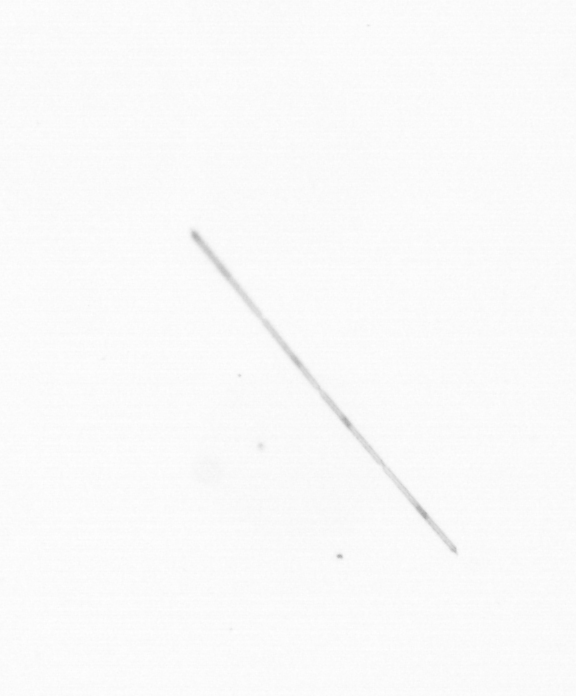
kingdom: Chromista
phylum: Ochrophyta
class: Bacillariophyceae
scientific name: Bacillariophyceae
